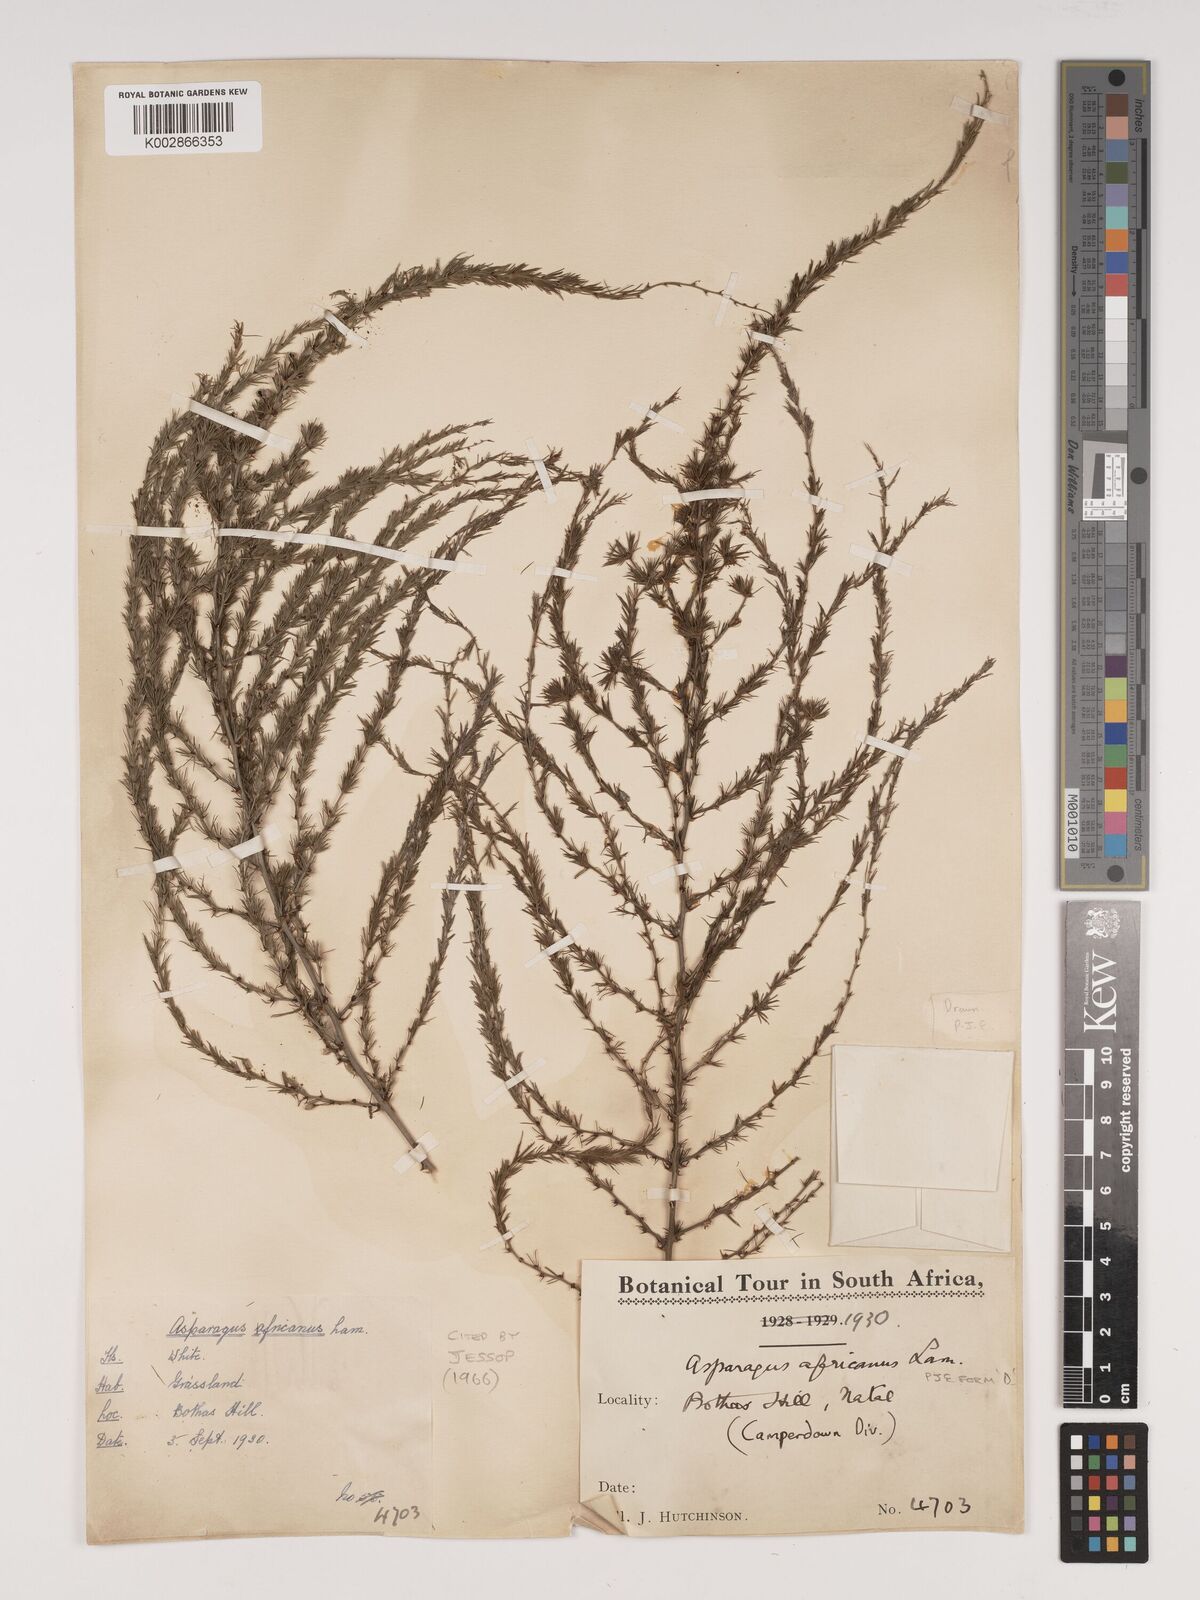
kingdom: Plantae
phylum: Tracheophyta
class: Liliopsida
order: Asparagales
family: Asparagaceae
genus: Asparagus
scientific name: Asparagus africanus
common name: Asparagus-fern
